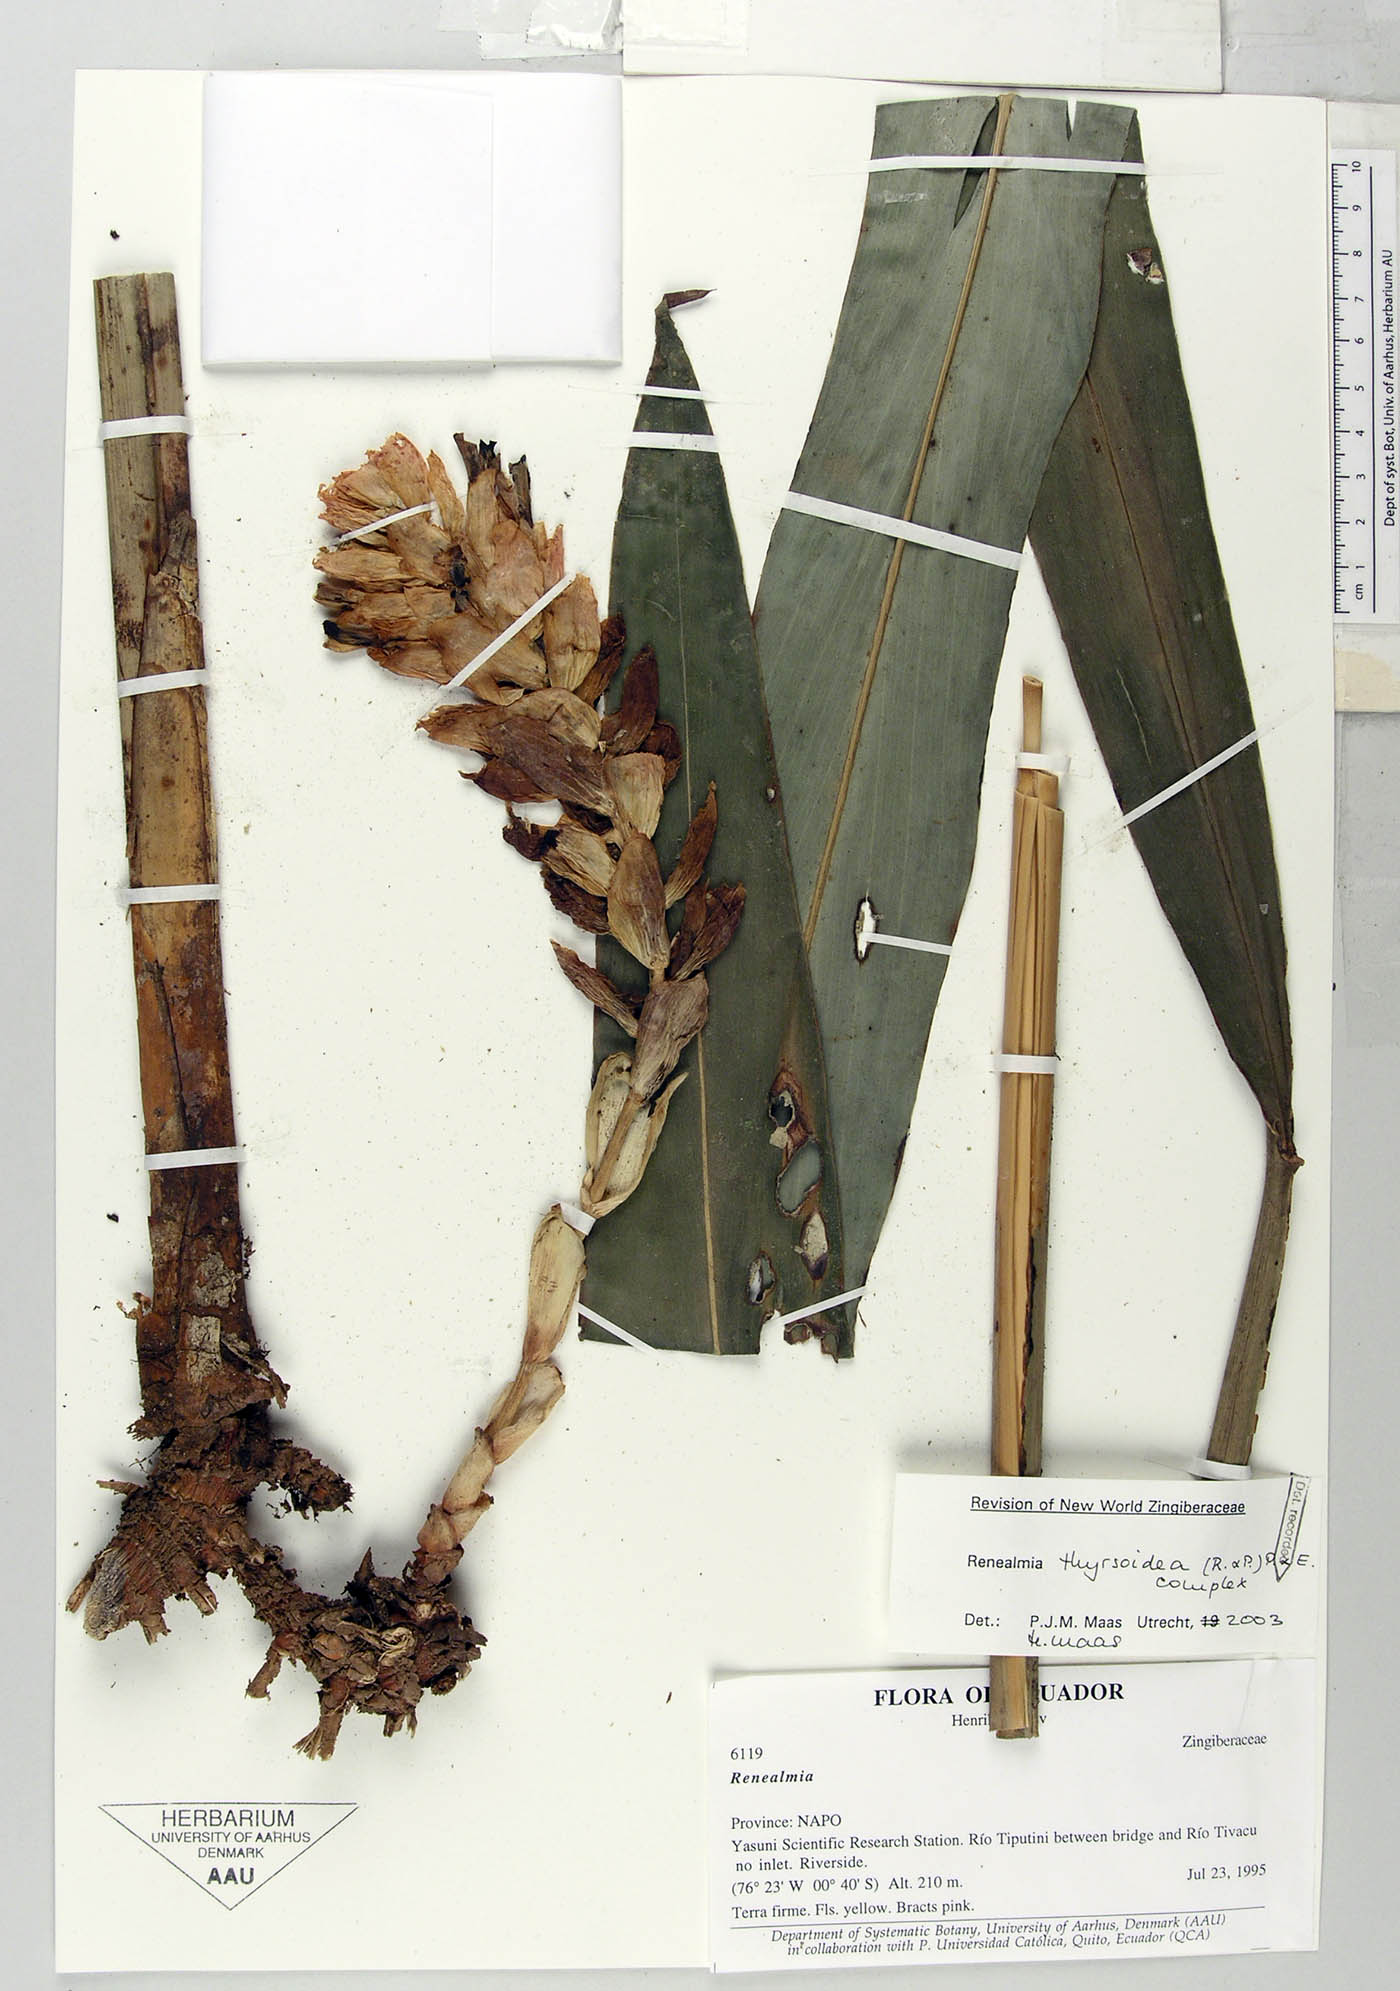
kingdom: Plantae
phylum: Tracheophyta
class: Liliopsida
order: Zingiberales
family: Zingiberaceae
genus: Renealmia
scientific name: Renealmia thyrsoidea
